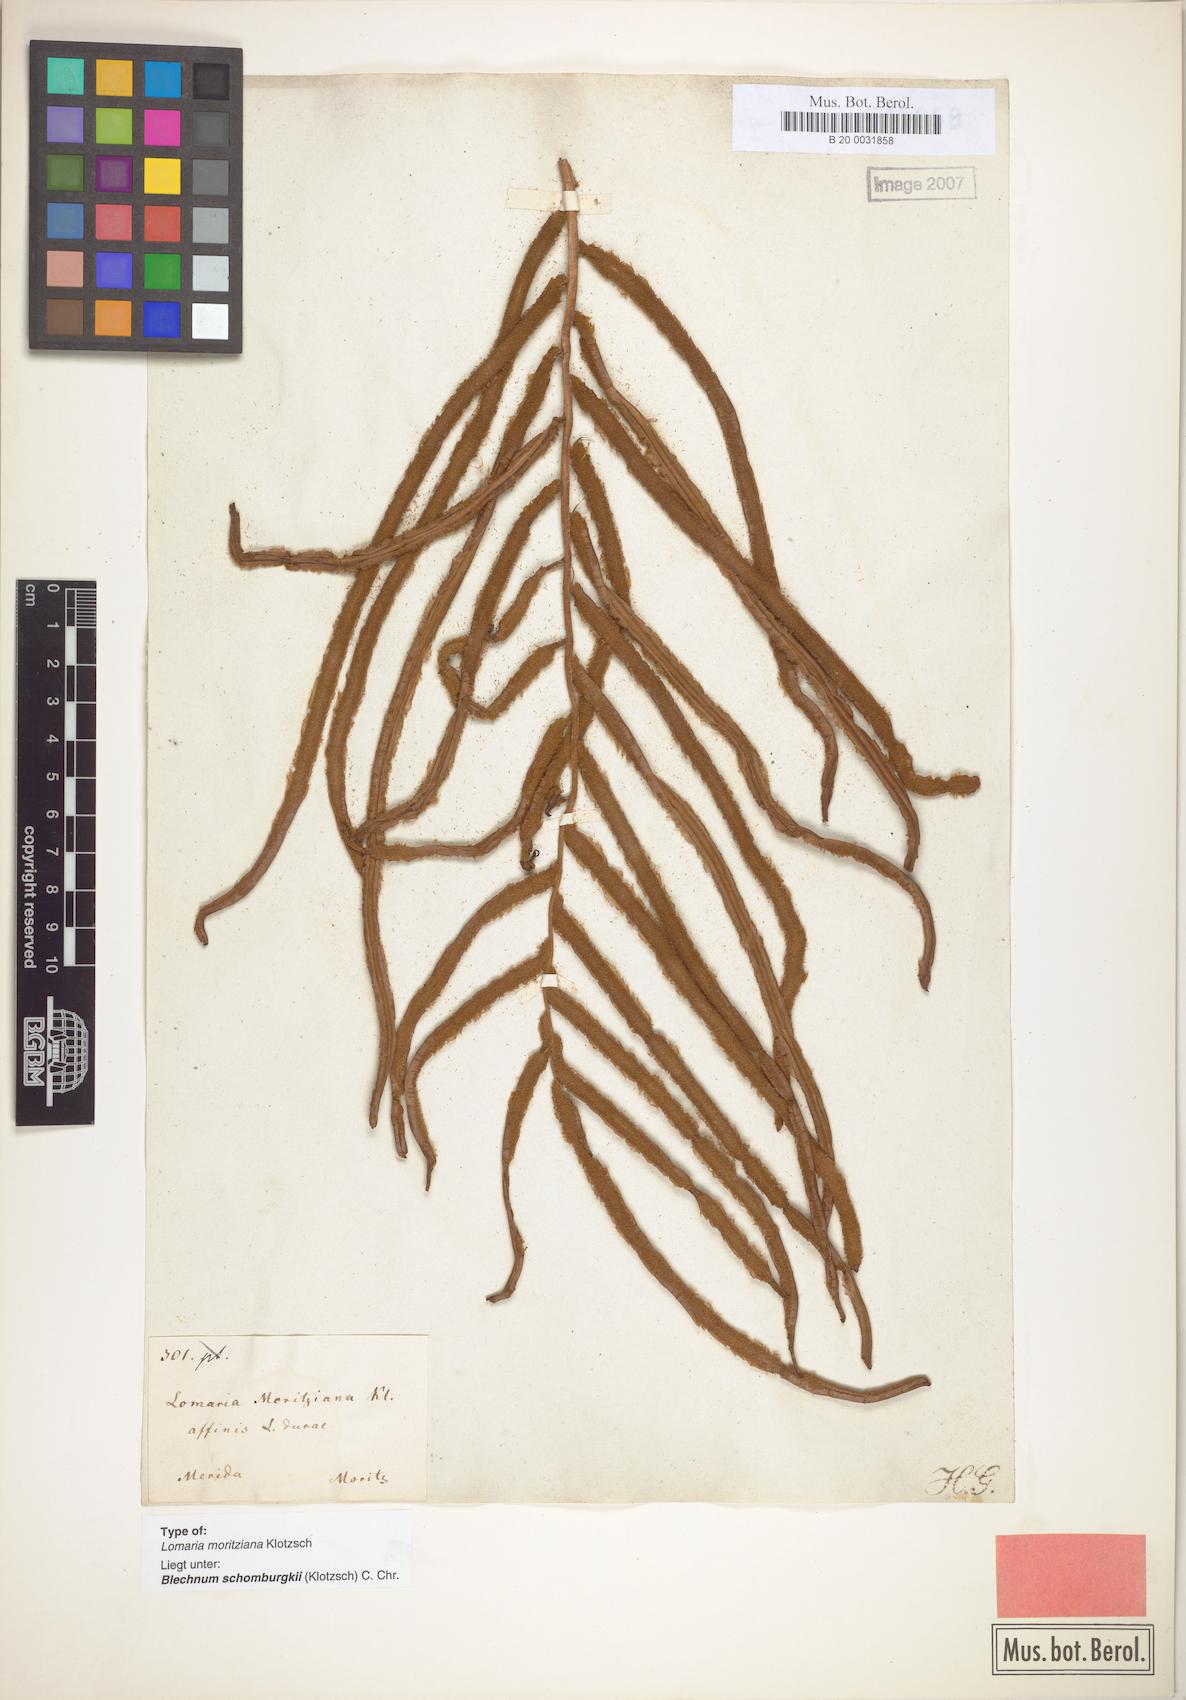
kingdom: Plantae
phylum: Tracheophyta
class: Polypodiopsida
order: Polypodiales
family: Blechnaceae
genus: Lomariocycas
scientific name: Lomariocycas moritziana
